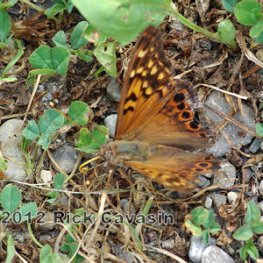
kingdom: Animalia
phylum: Arthropoda
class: Insecta
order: Lepidoptera
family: Nymphalidae
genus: Asterocampa
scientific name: Asterocampa clyton
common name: Tawny Emperor
